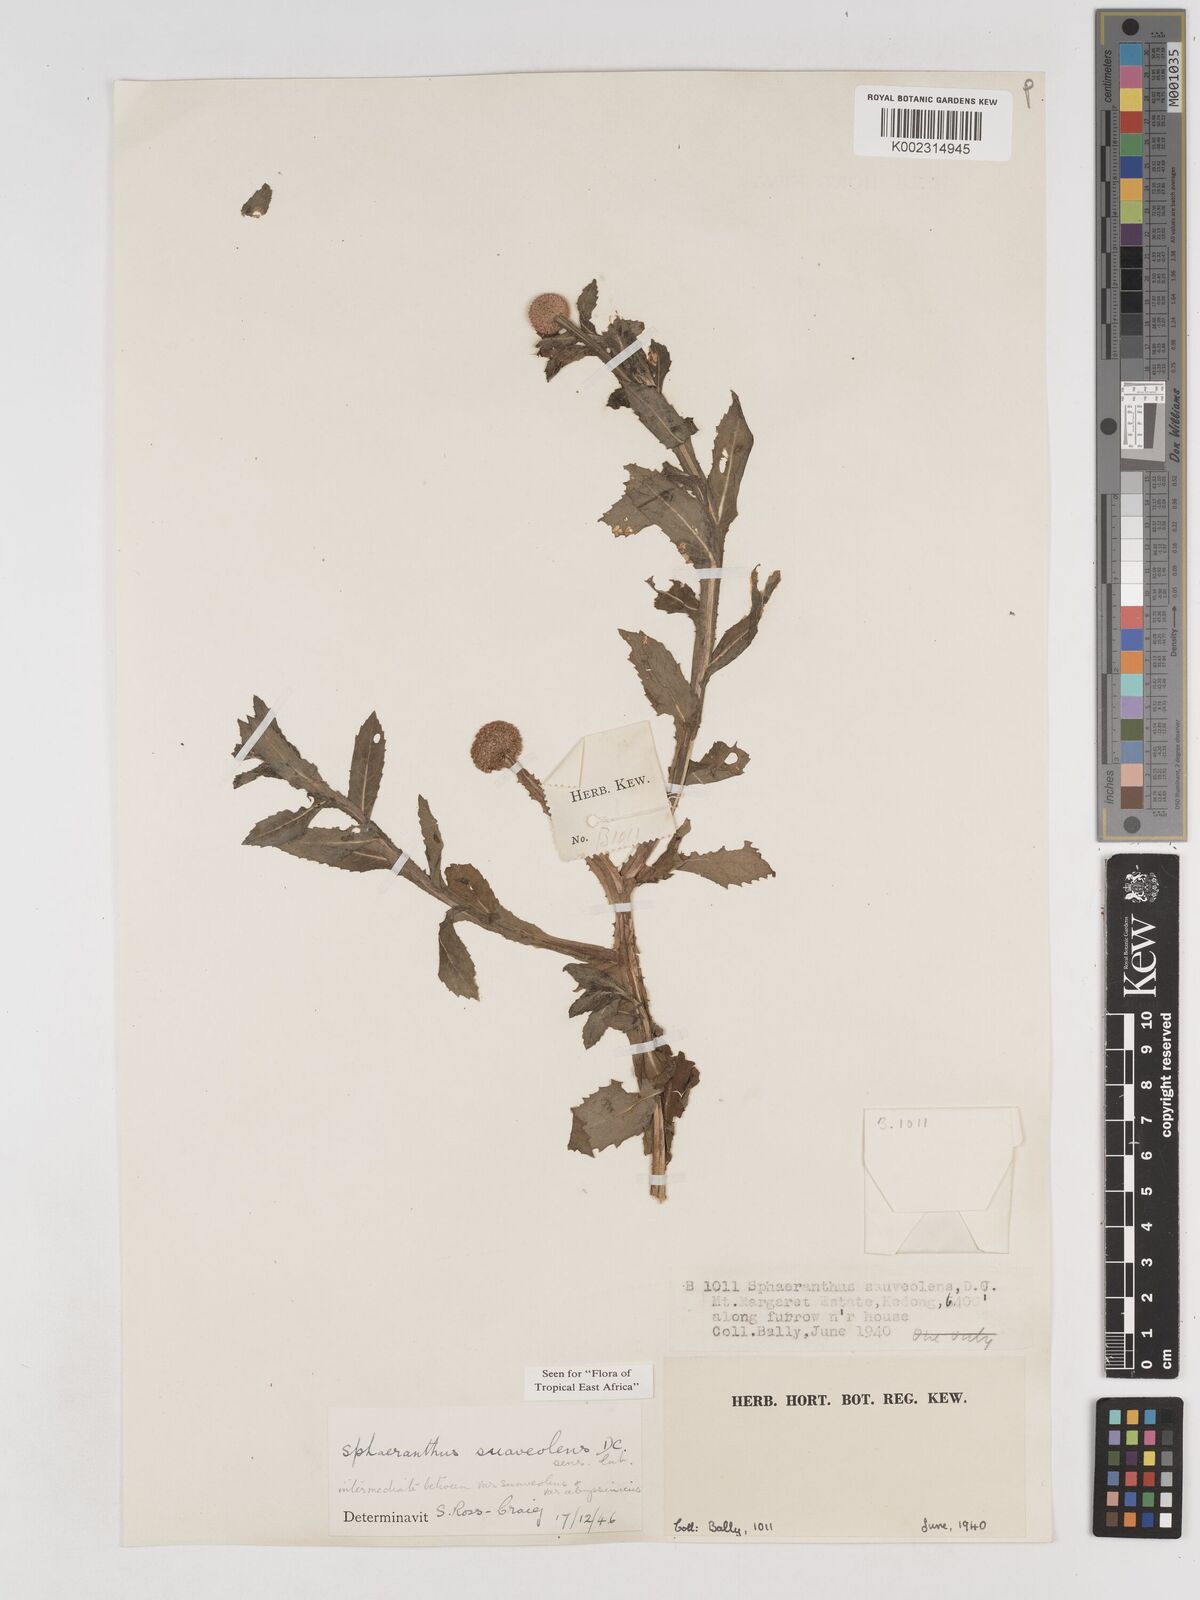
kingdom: Plantae
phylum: Tracheophyta
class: Magnoliopsida
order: Asterales
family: Asteraceae
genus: Sphaeranthus
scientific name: Sphaeranthus suaveolens
